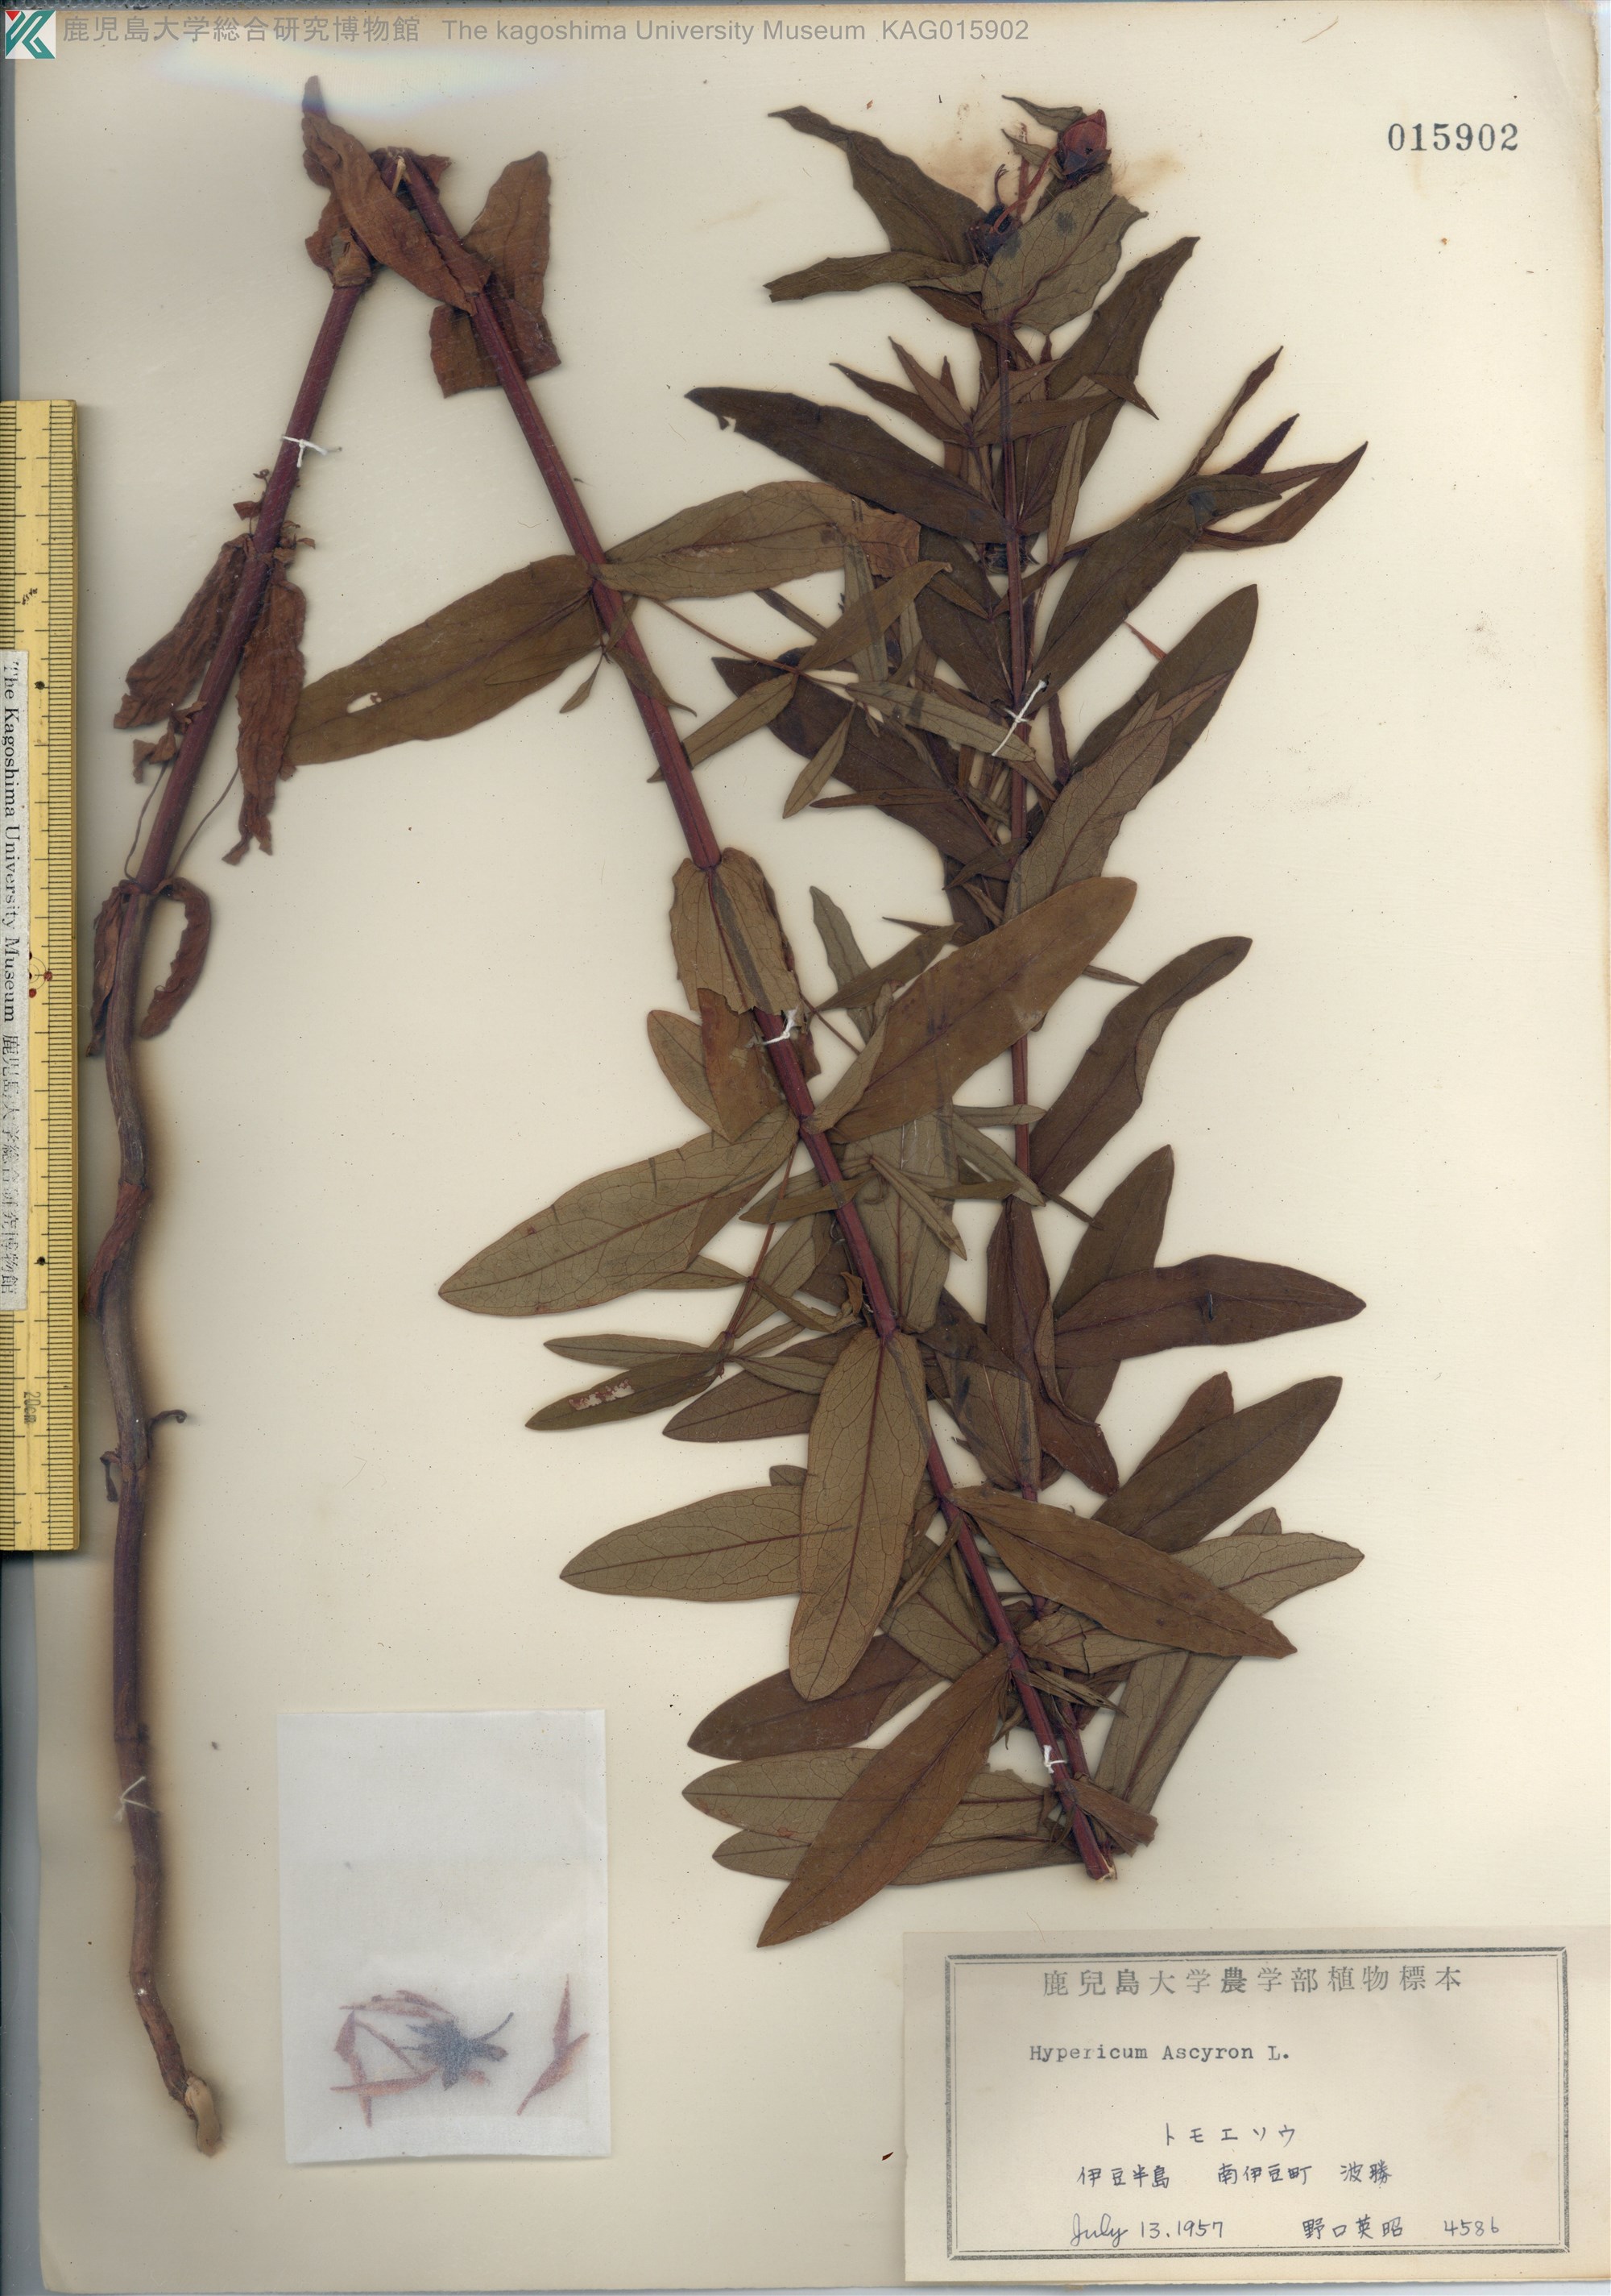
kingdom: Plantae
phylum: Tracheophyta
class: Magnoliopsida
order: Malpighiales
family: Hypericaceae
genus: Hypericum
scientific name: Hypericum ascyron
